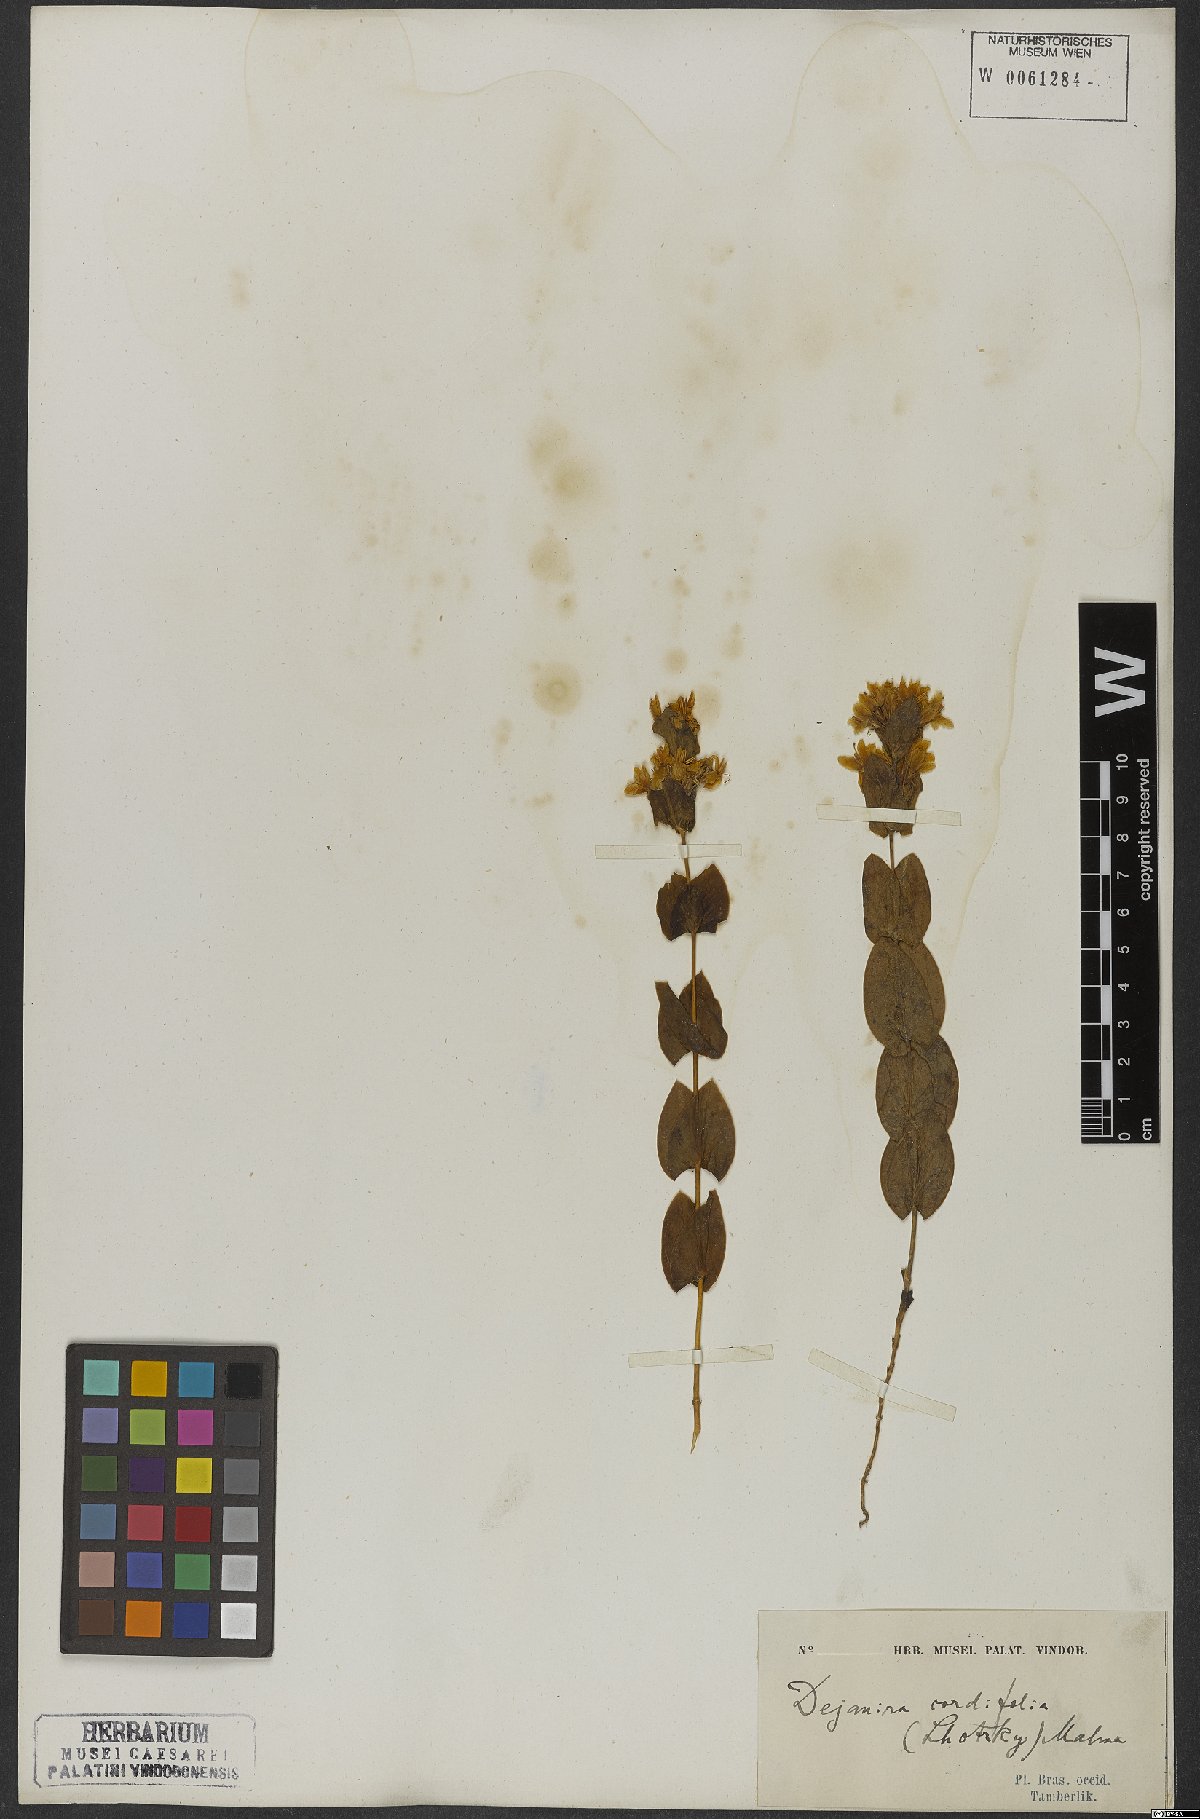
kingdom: Plantae
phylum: Tracheophyta
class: Magnoliopsida
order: Gentianales
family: Gentianaceae
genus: Deianira
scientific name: Deianira cordifolia
